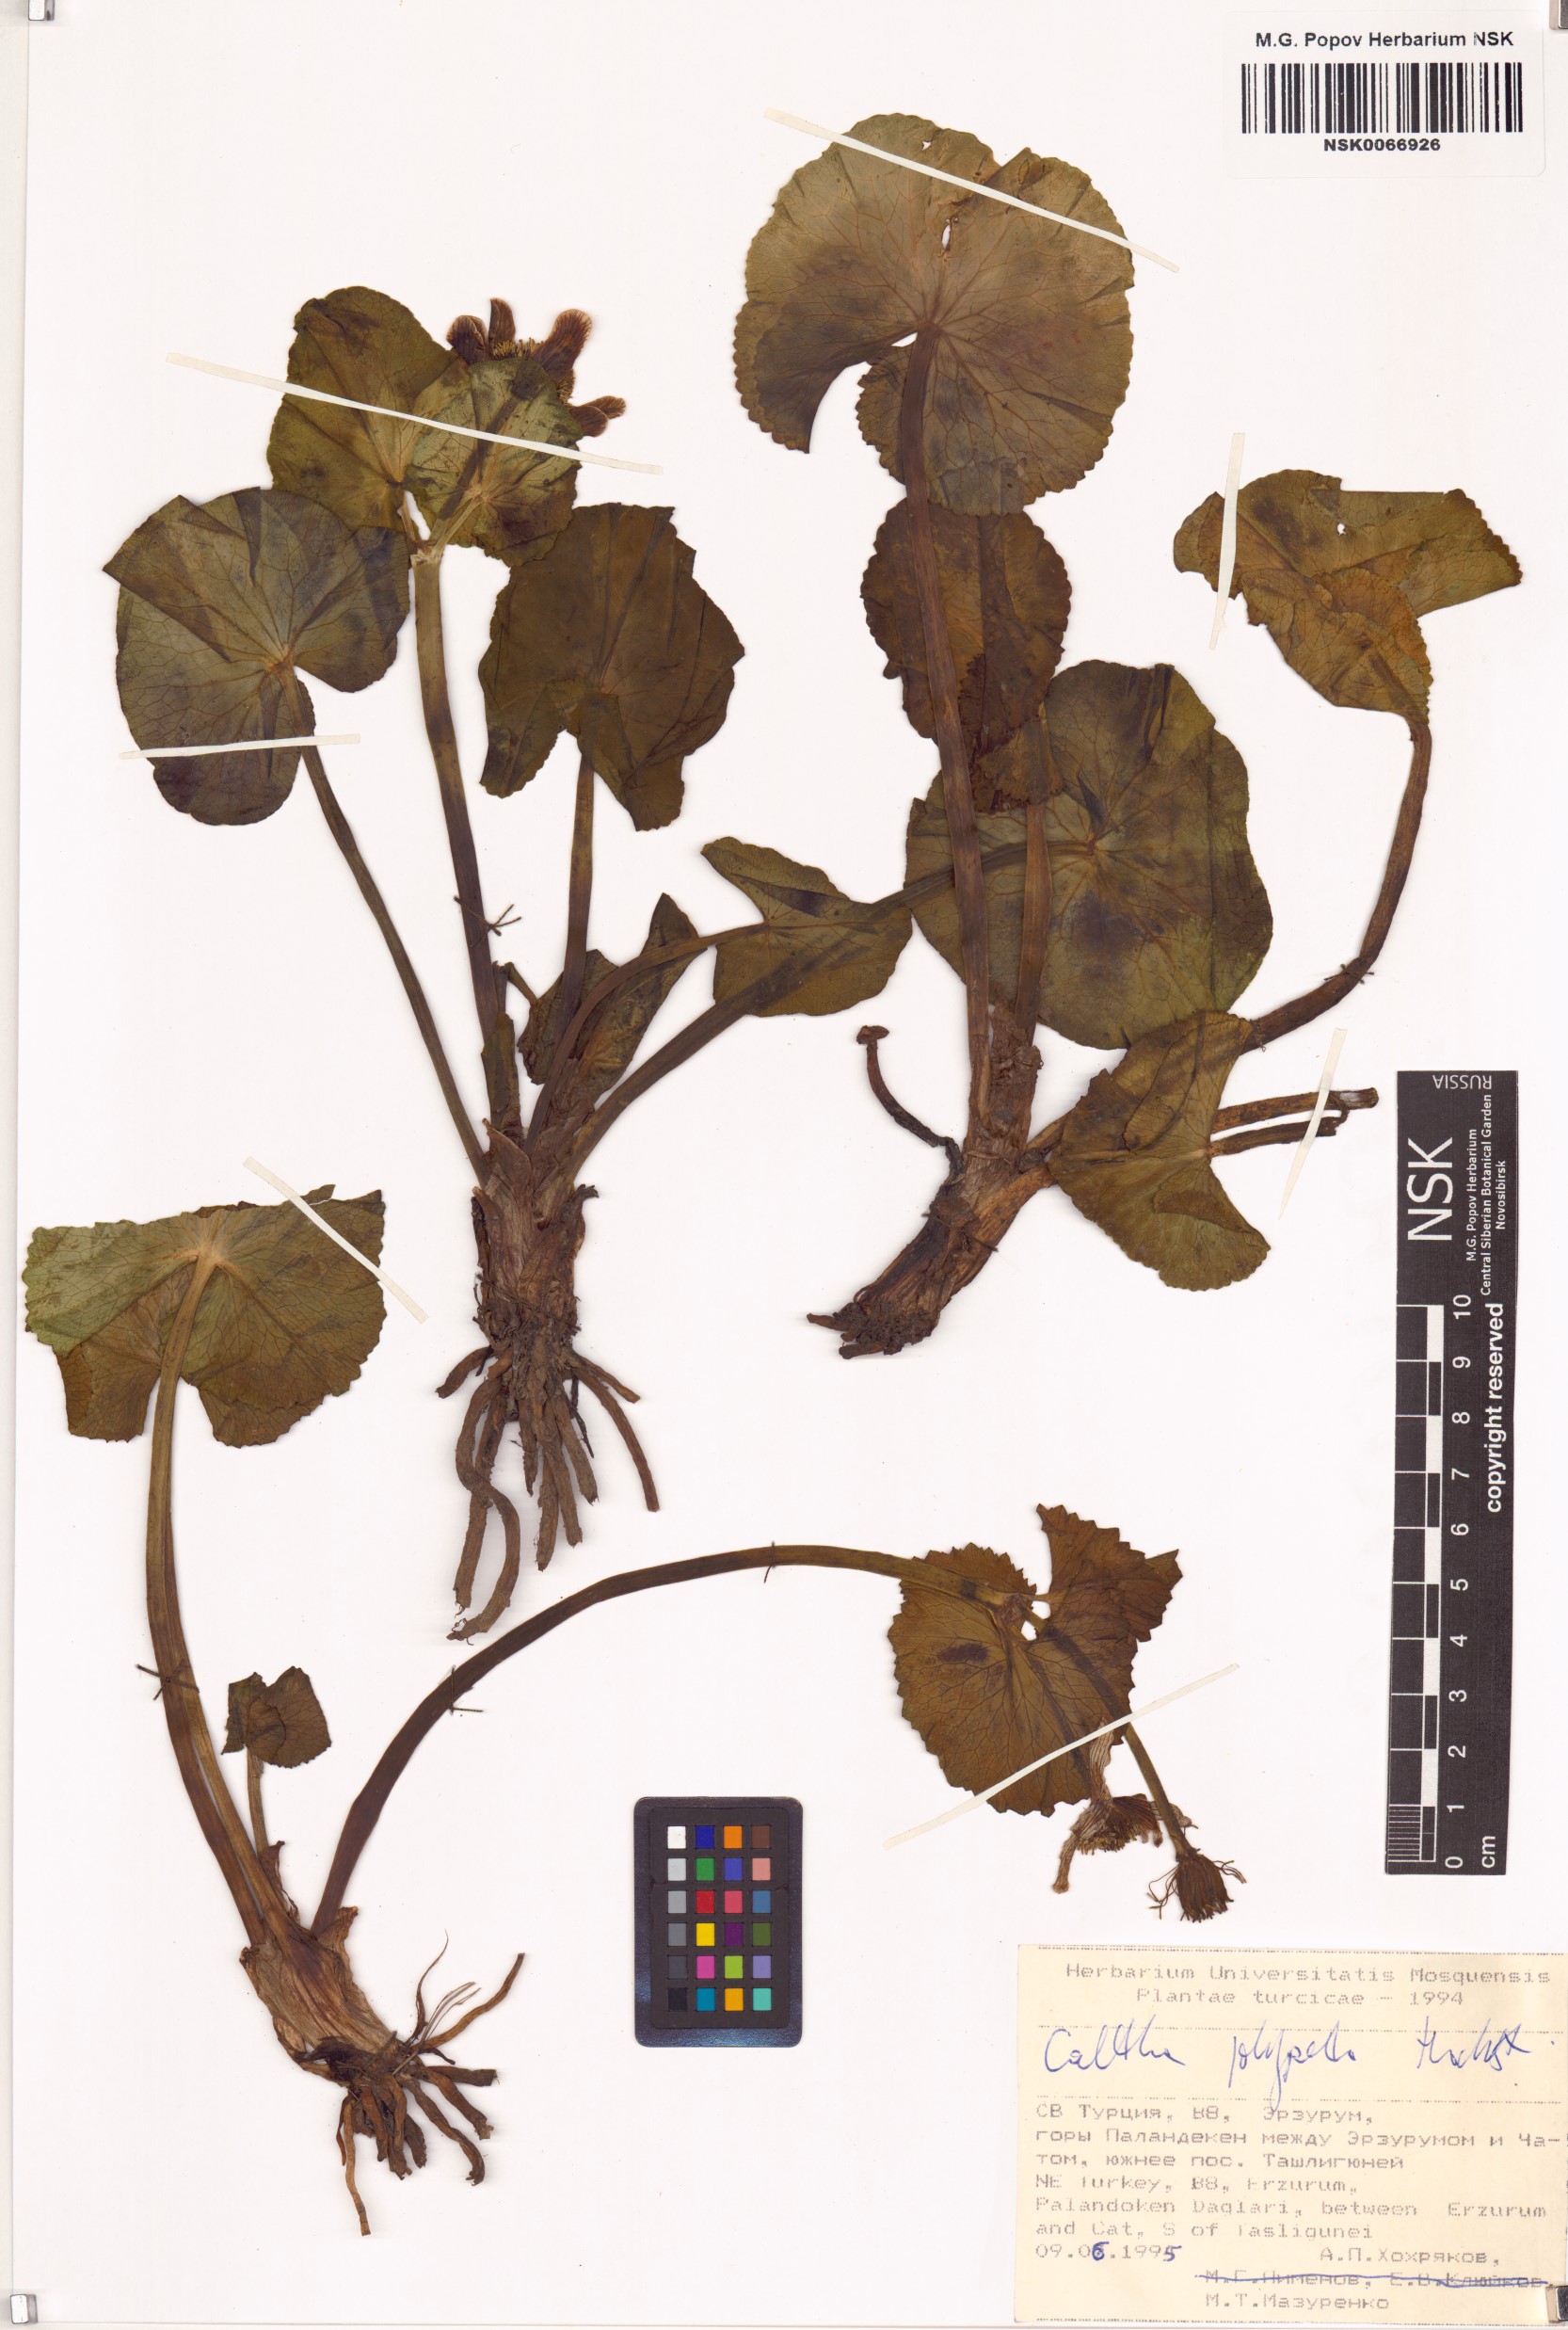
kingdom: Plantae
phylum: Tracheophyta
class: Magnoliopsida
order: Ranunculales
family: Ranunculaceae
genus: Caltha
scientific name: Caltha palustris
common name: Marsh marigold
